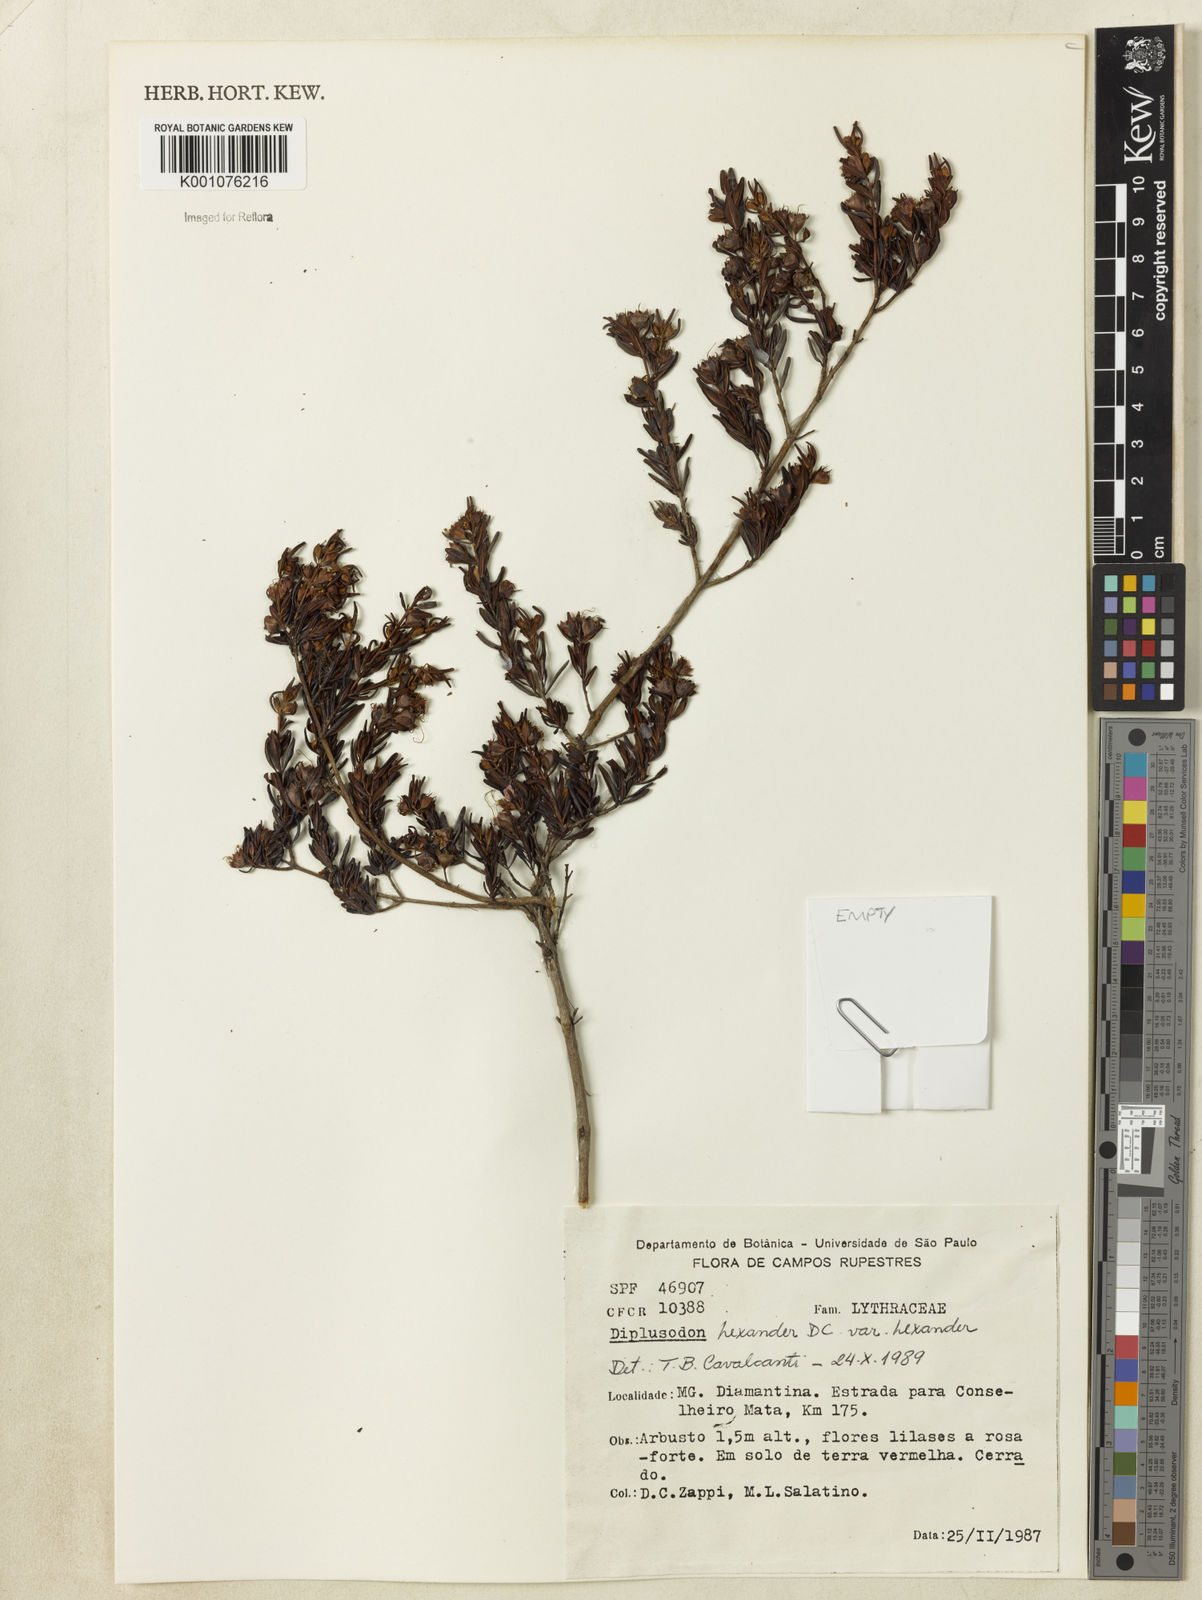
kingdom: Plantae
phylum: Tracheophyta
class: Magnoliopsida
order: Myrtales
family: Lythraceae
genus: Diplusodon
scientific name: Diplusodon hexander
